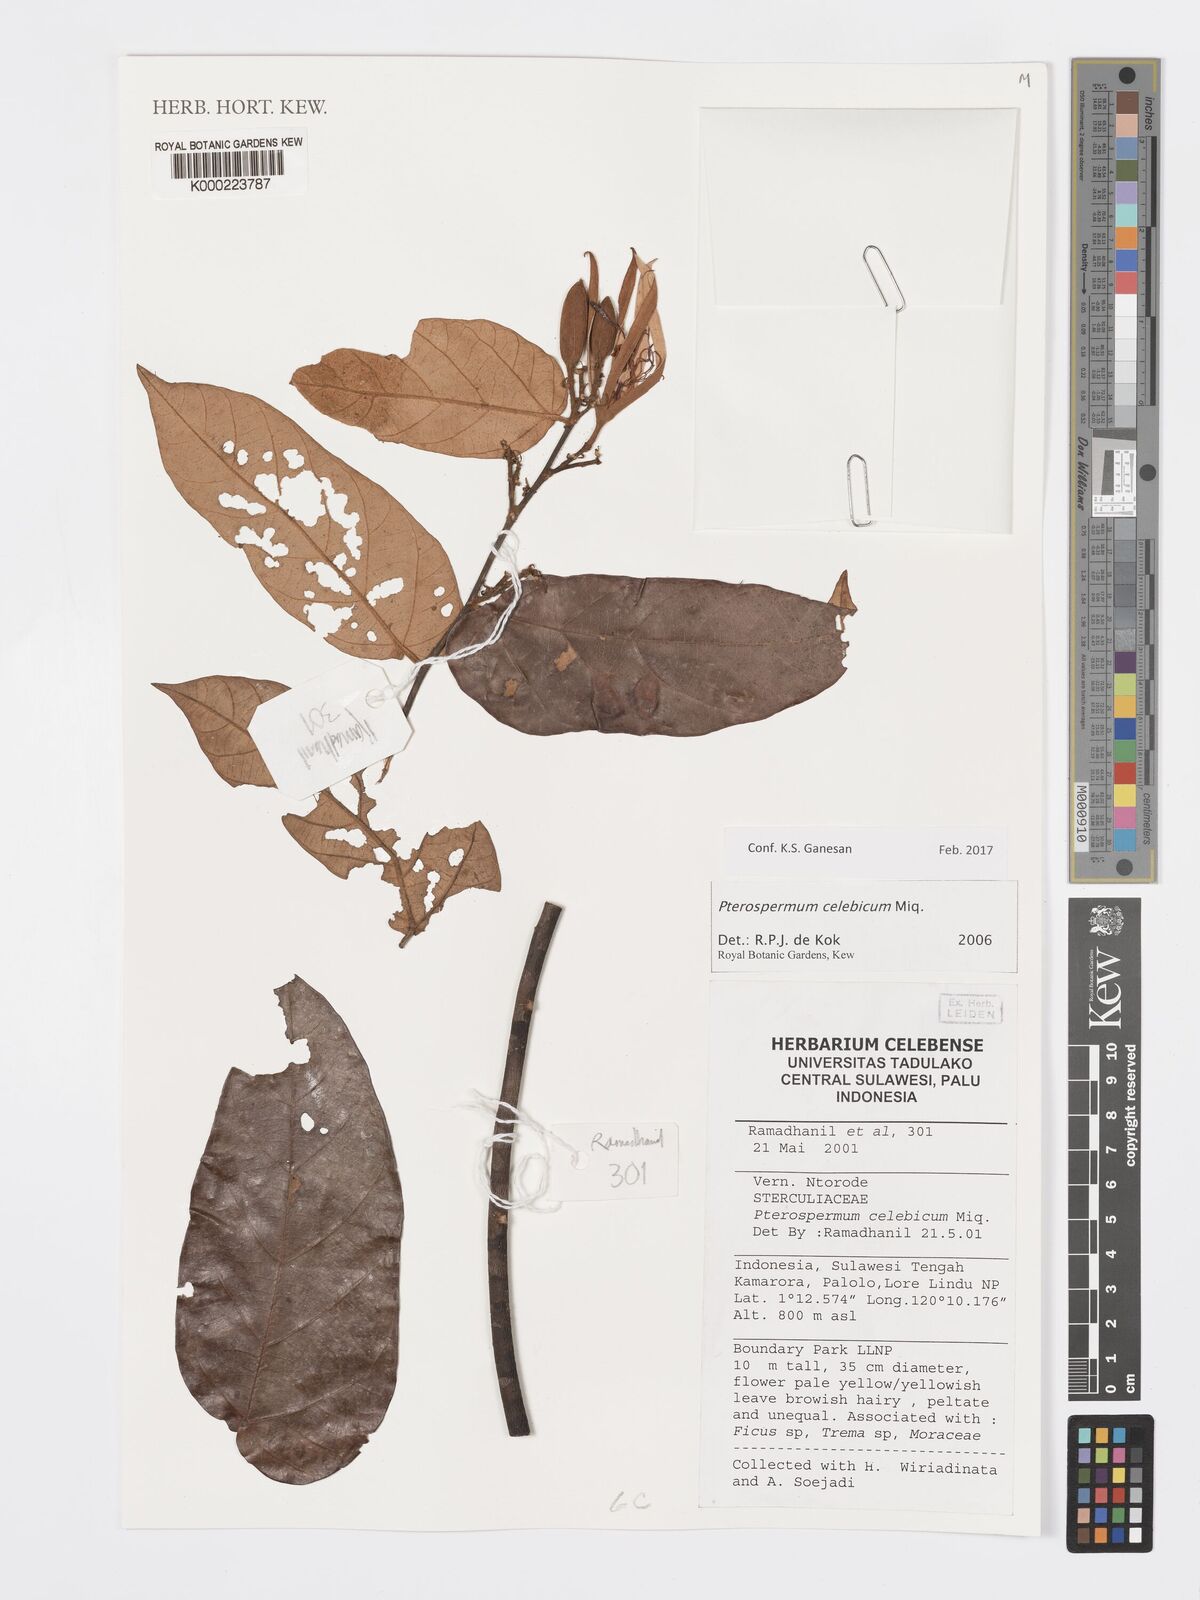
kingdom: Plantae
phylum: Tracheophyta
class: Magnoliopsida
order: Malvales
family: Malvaceae
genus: Pterospermum
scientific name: Pterospermum celebicum
